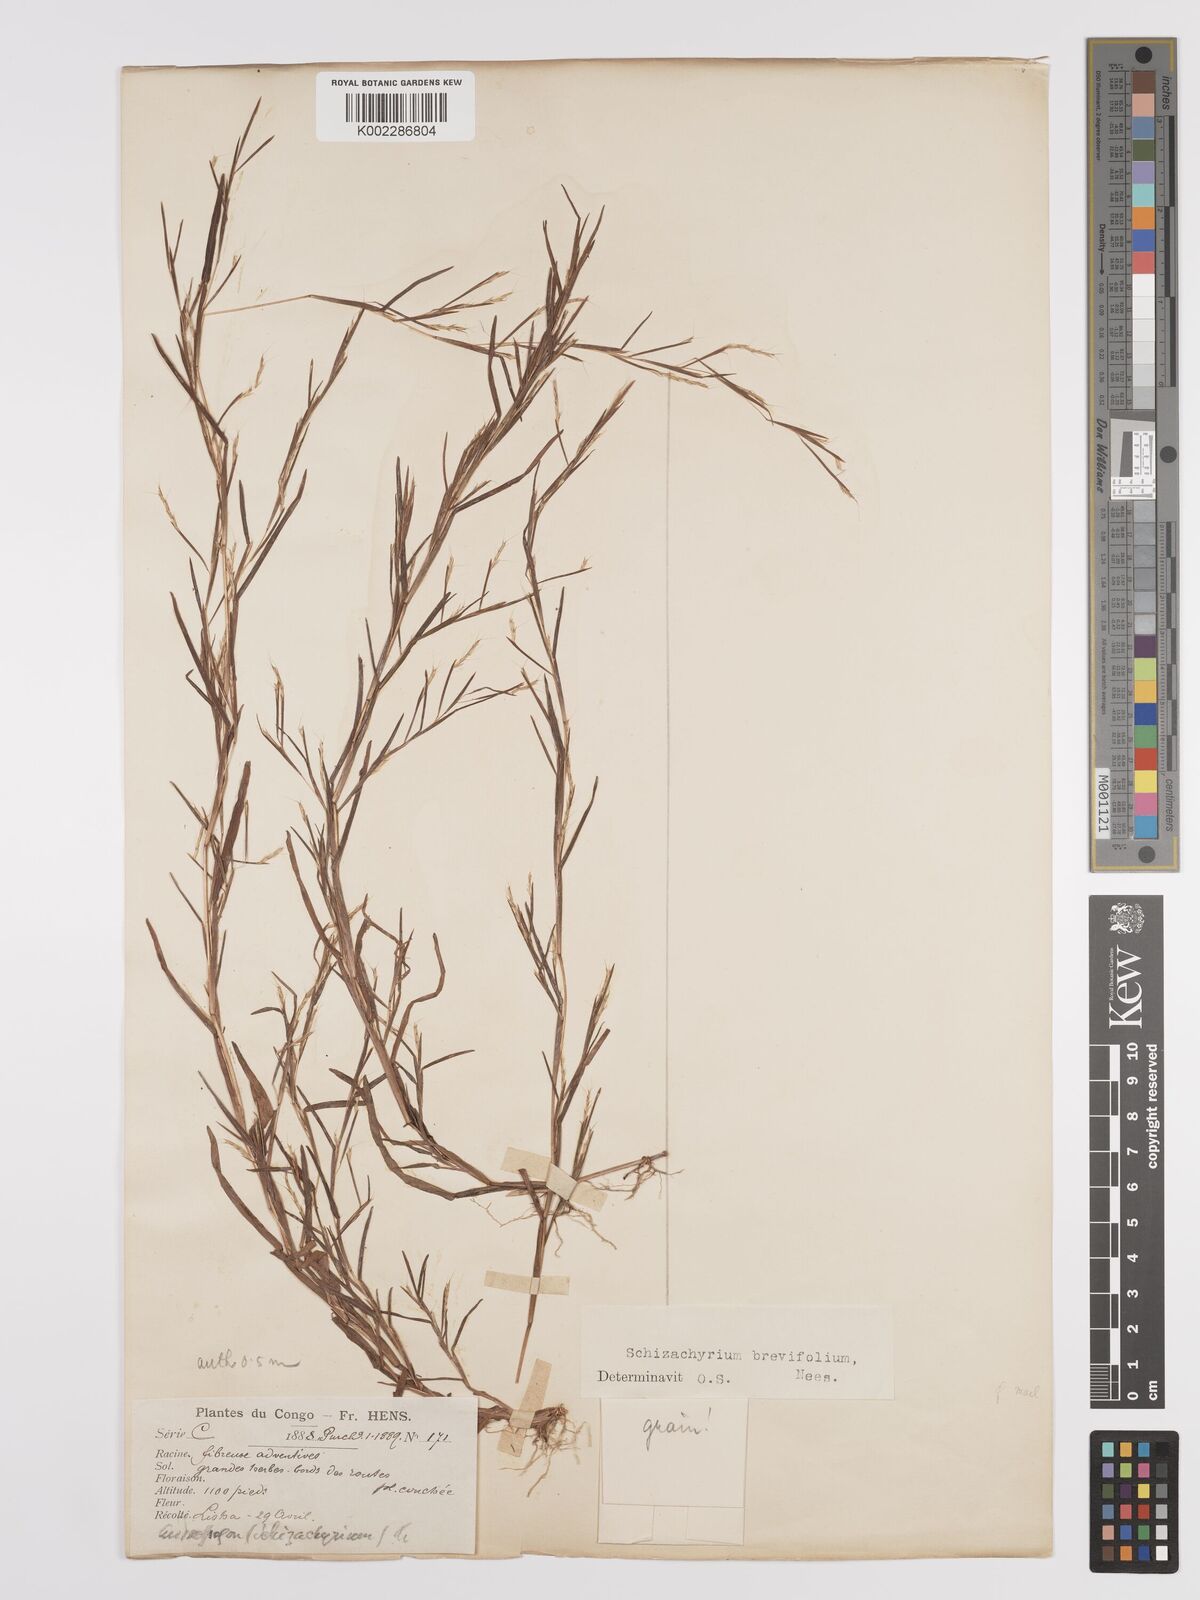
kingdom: Plantae
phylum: Tracheophyta
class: Liliopsida
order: Poales
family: Poaceae
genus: Schizachyrium
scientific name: Schizachyrium brevifolium
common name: Serillo dulce
